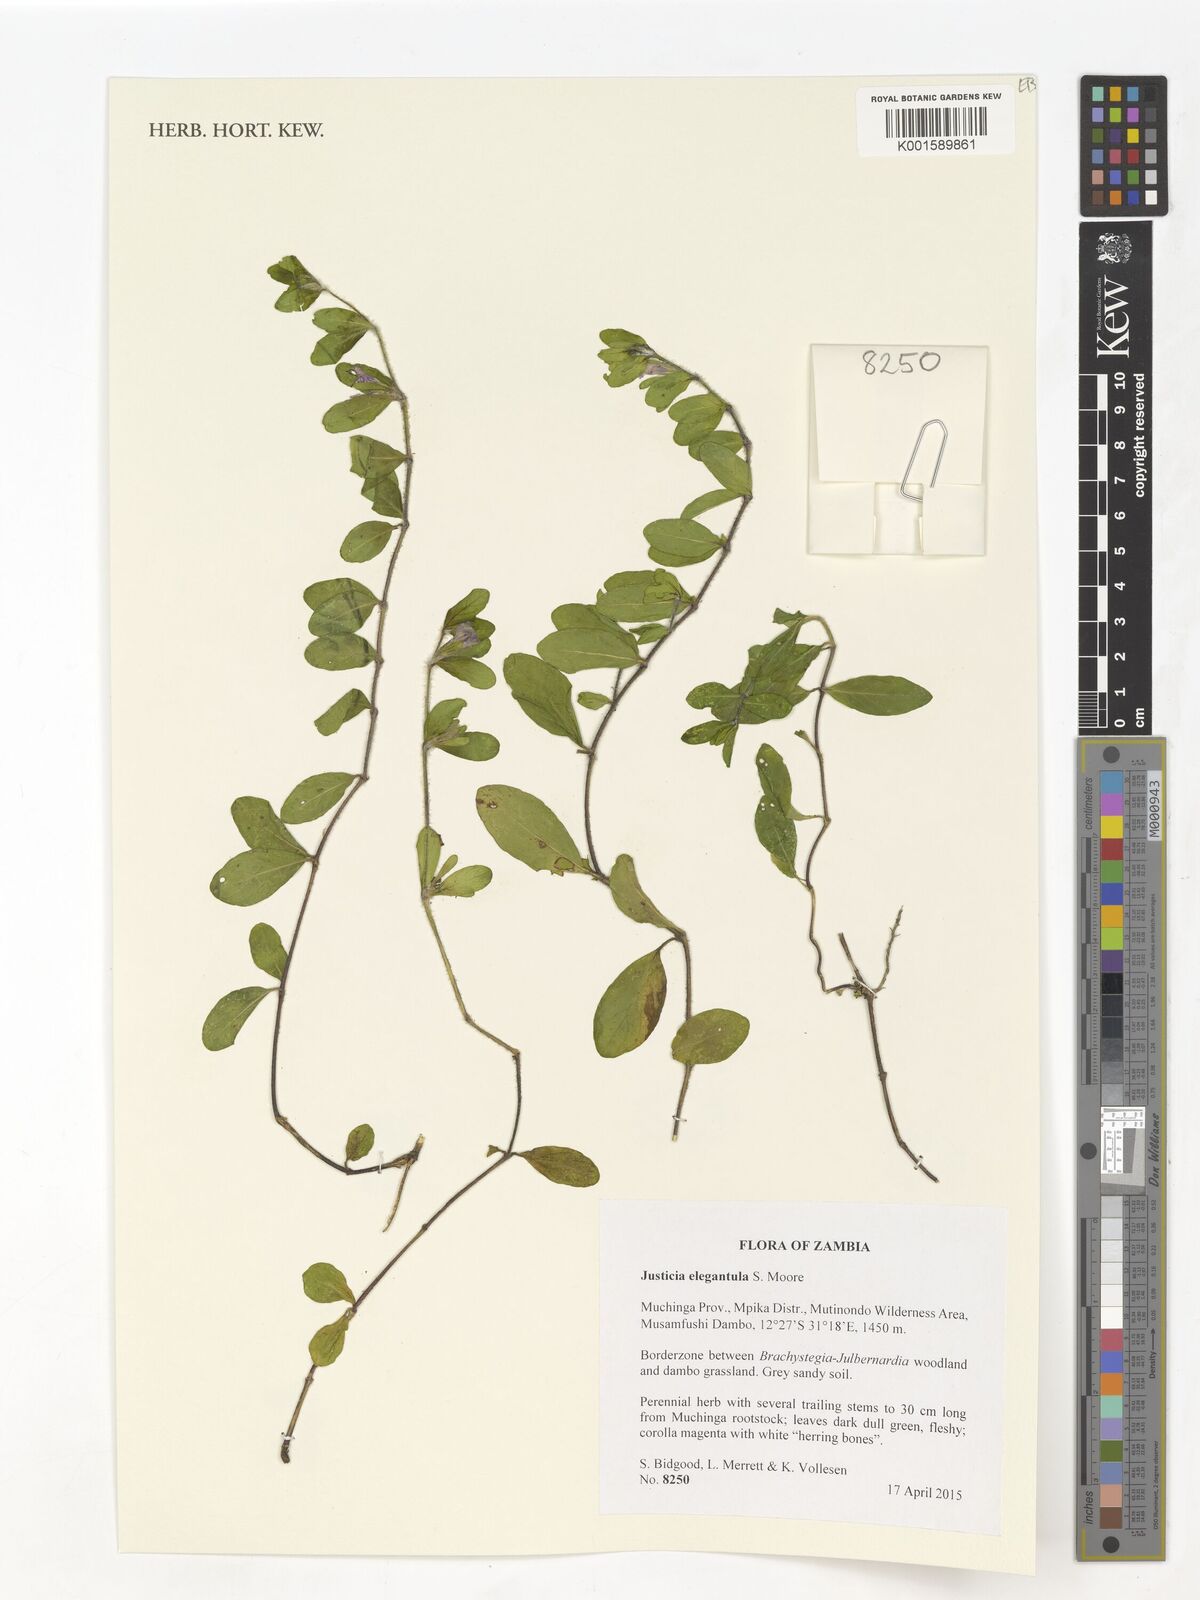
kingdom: Plantae
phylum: Tracheophyta
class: Magnoliopsida
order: Lamiales
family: Acanthaceae
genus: Justicia
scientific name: Justicia elegantula
